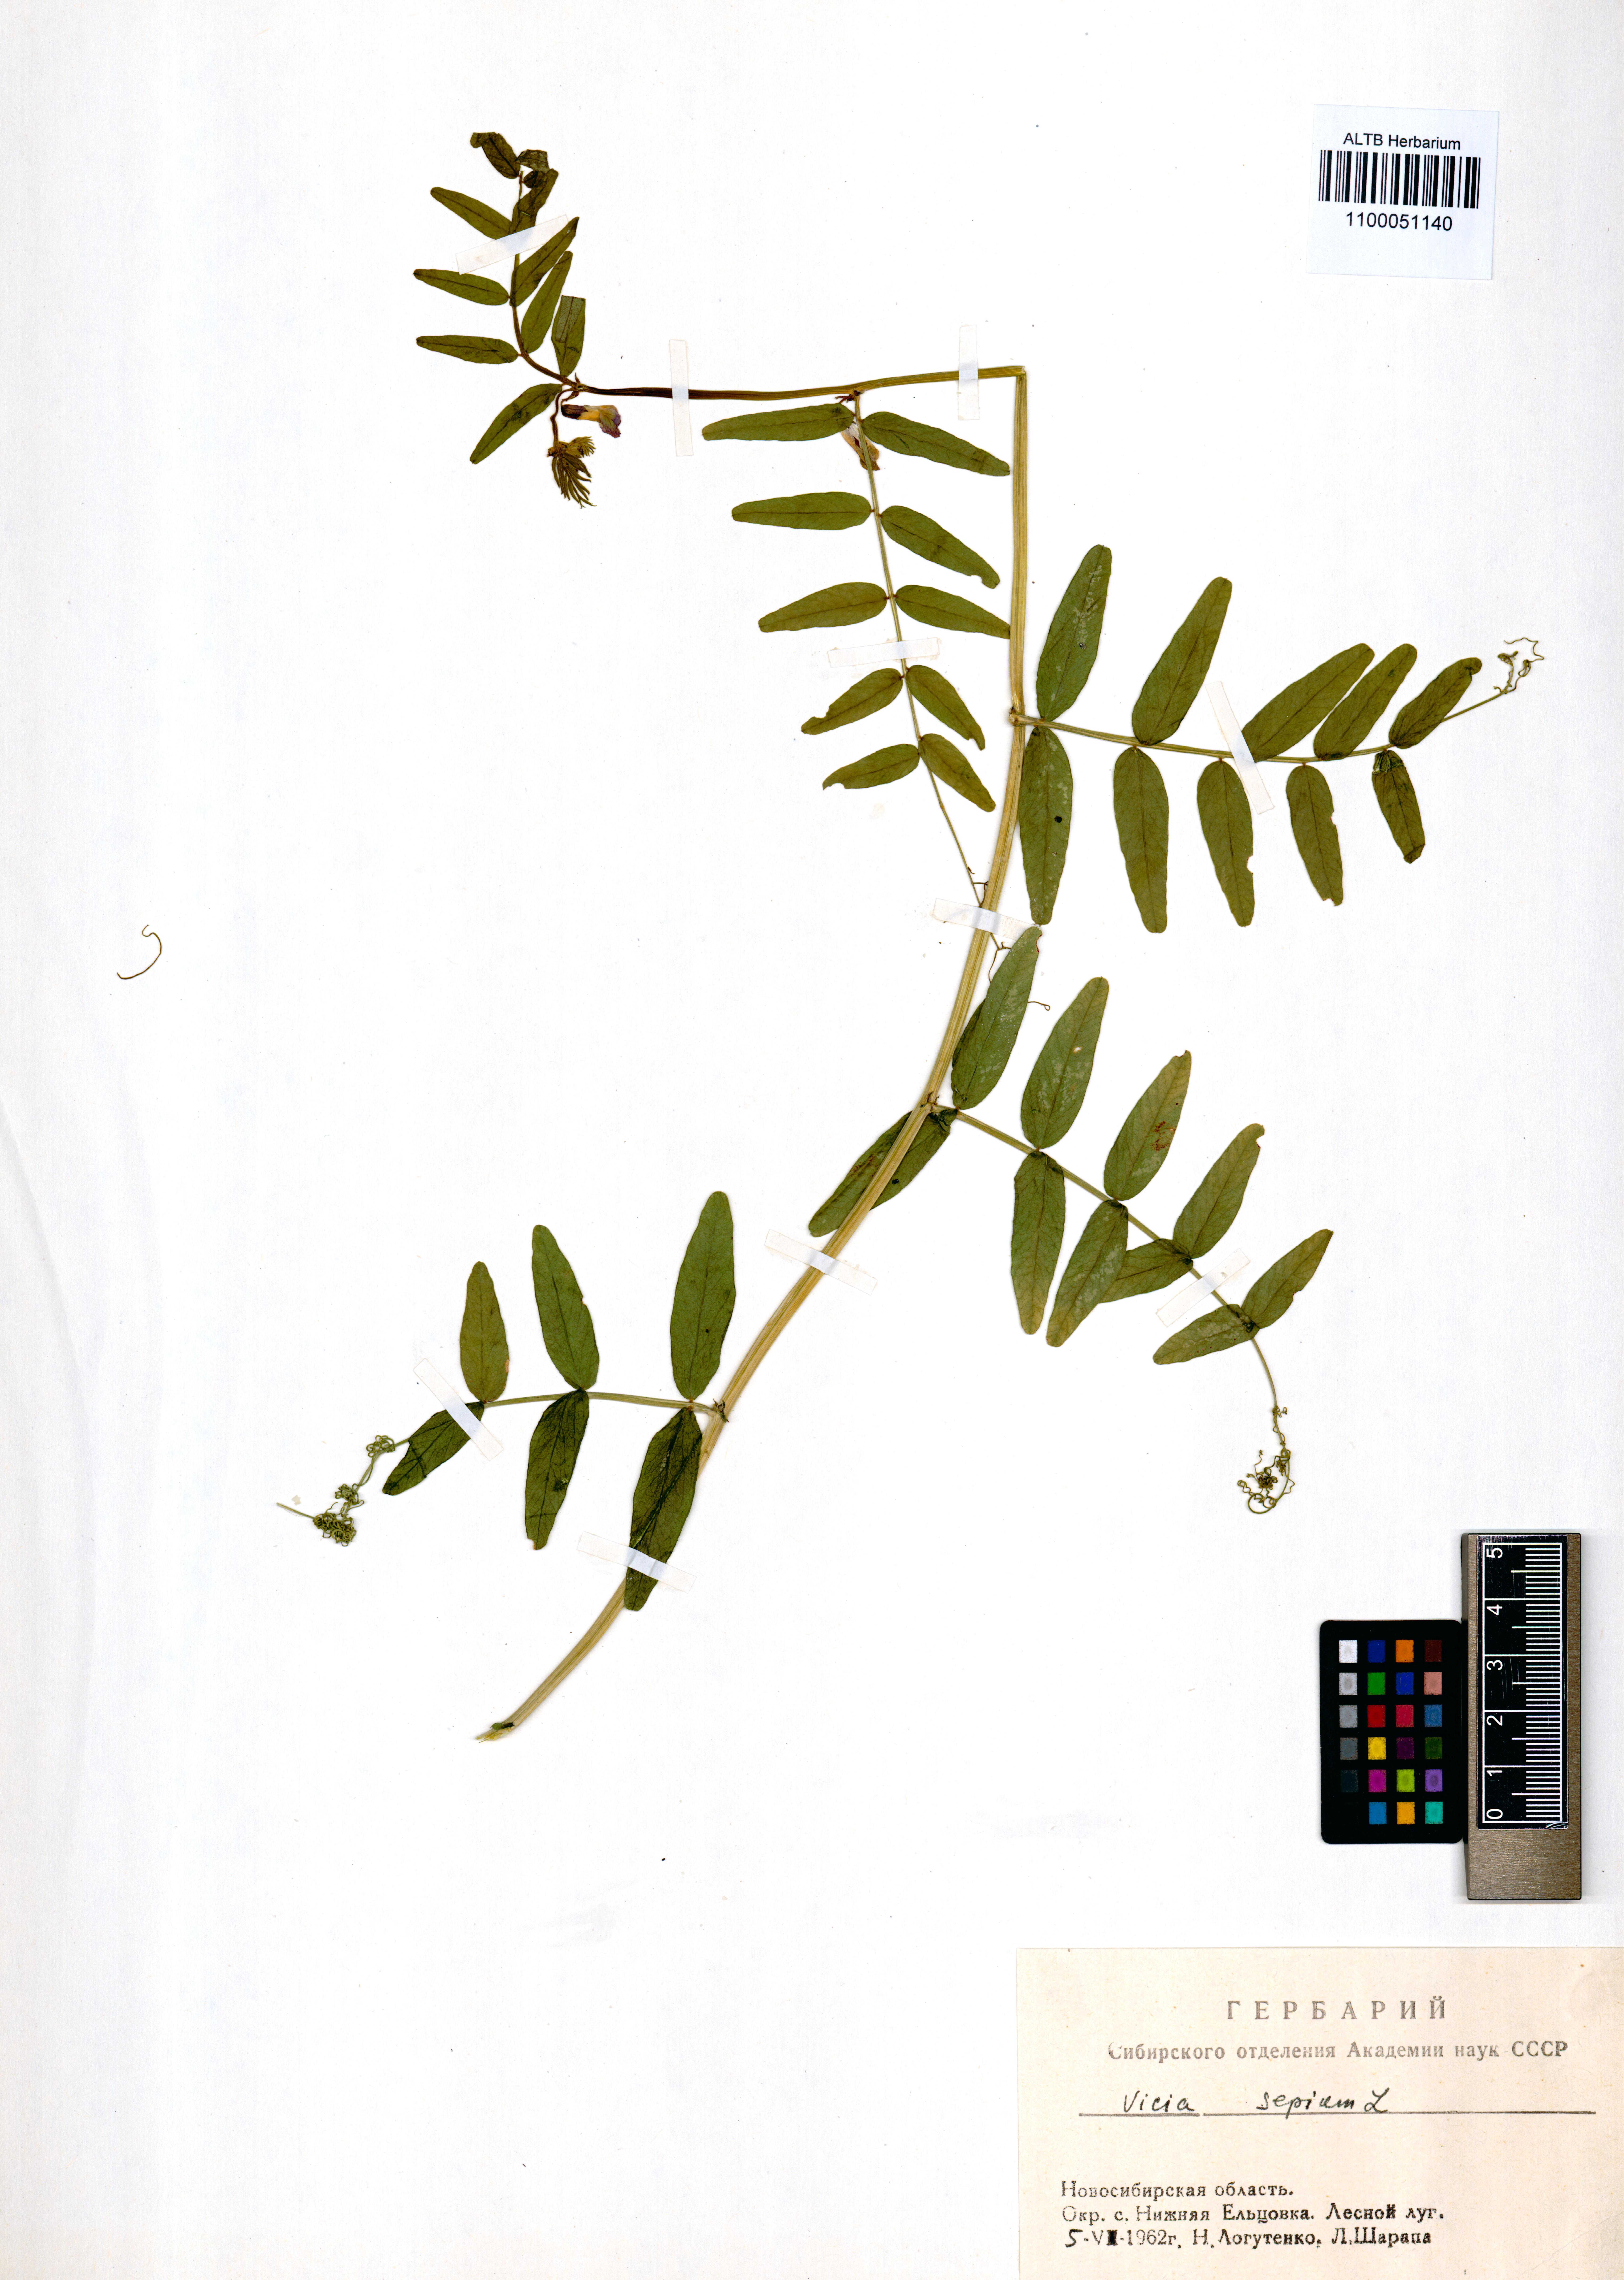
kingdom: Plantae
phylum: Tracheophyta
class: Magnoliopsida
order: Fabales
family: Fabaceae
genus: Vicia
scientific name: Vicia sepium
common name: Bush vetch
